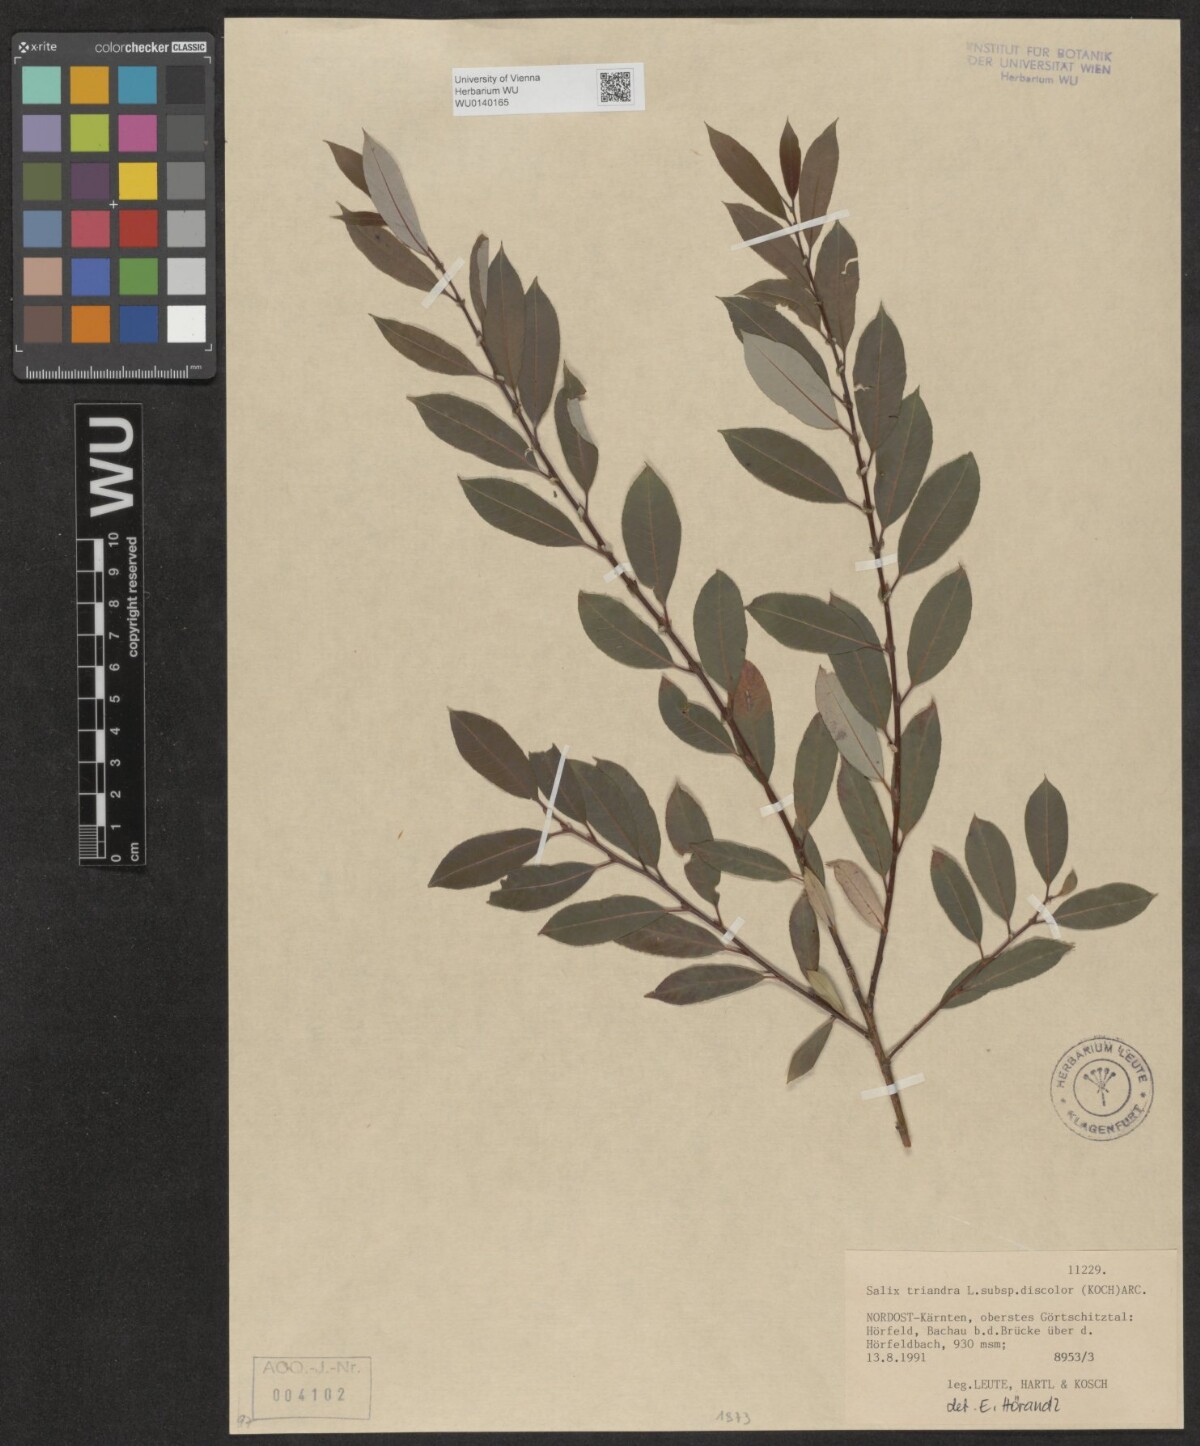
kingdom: Plantae
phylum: Tracheophyta
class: Magnoliopsida
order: Malpighiales
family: Salicaceae
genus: Salix
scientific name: Salix triandra
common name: Almond willow
